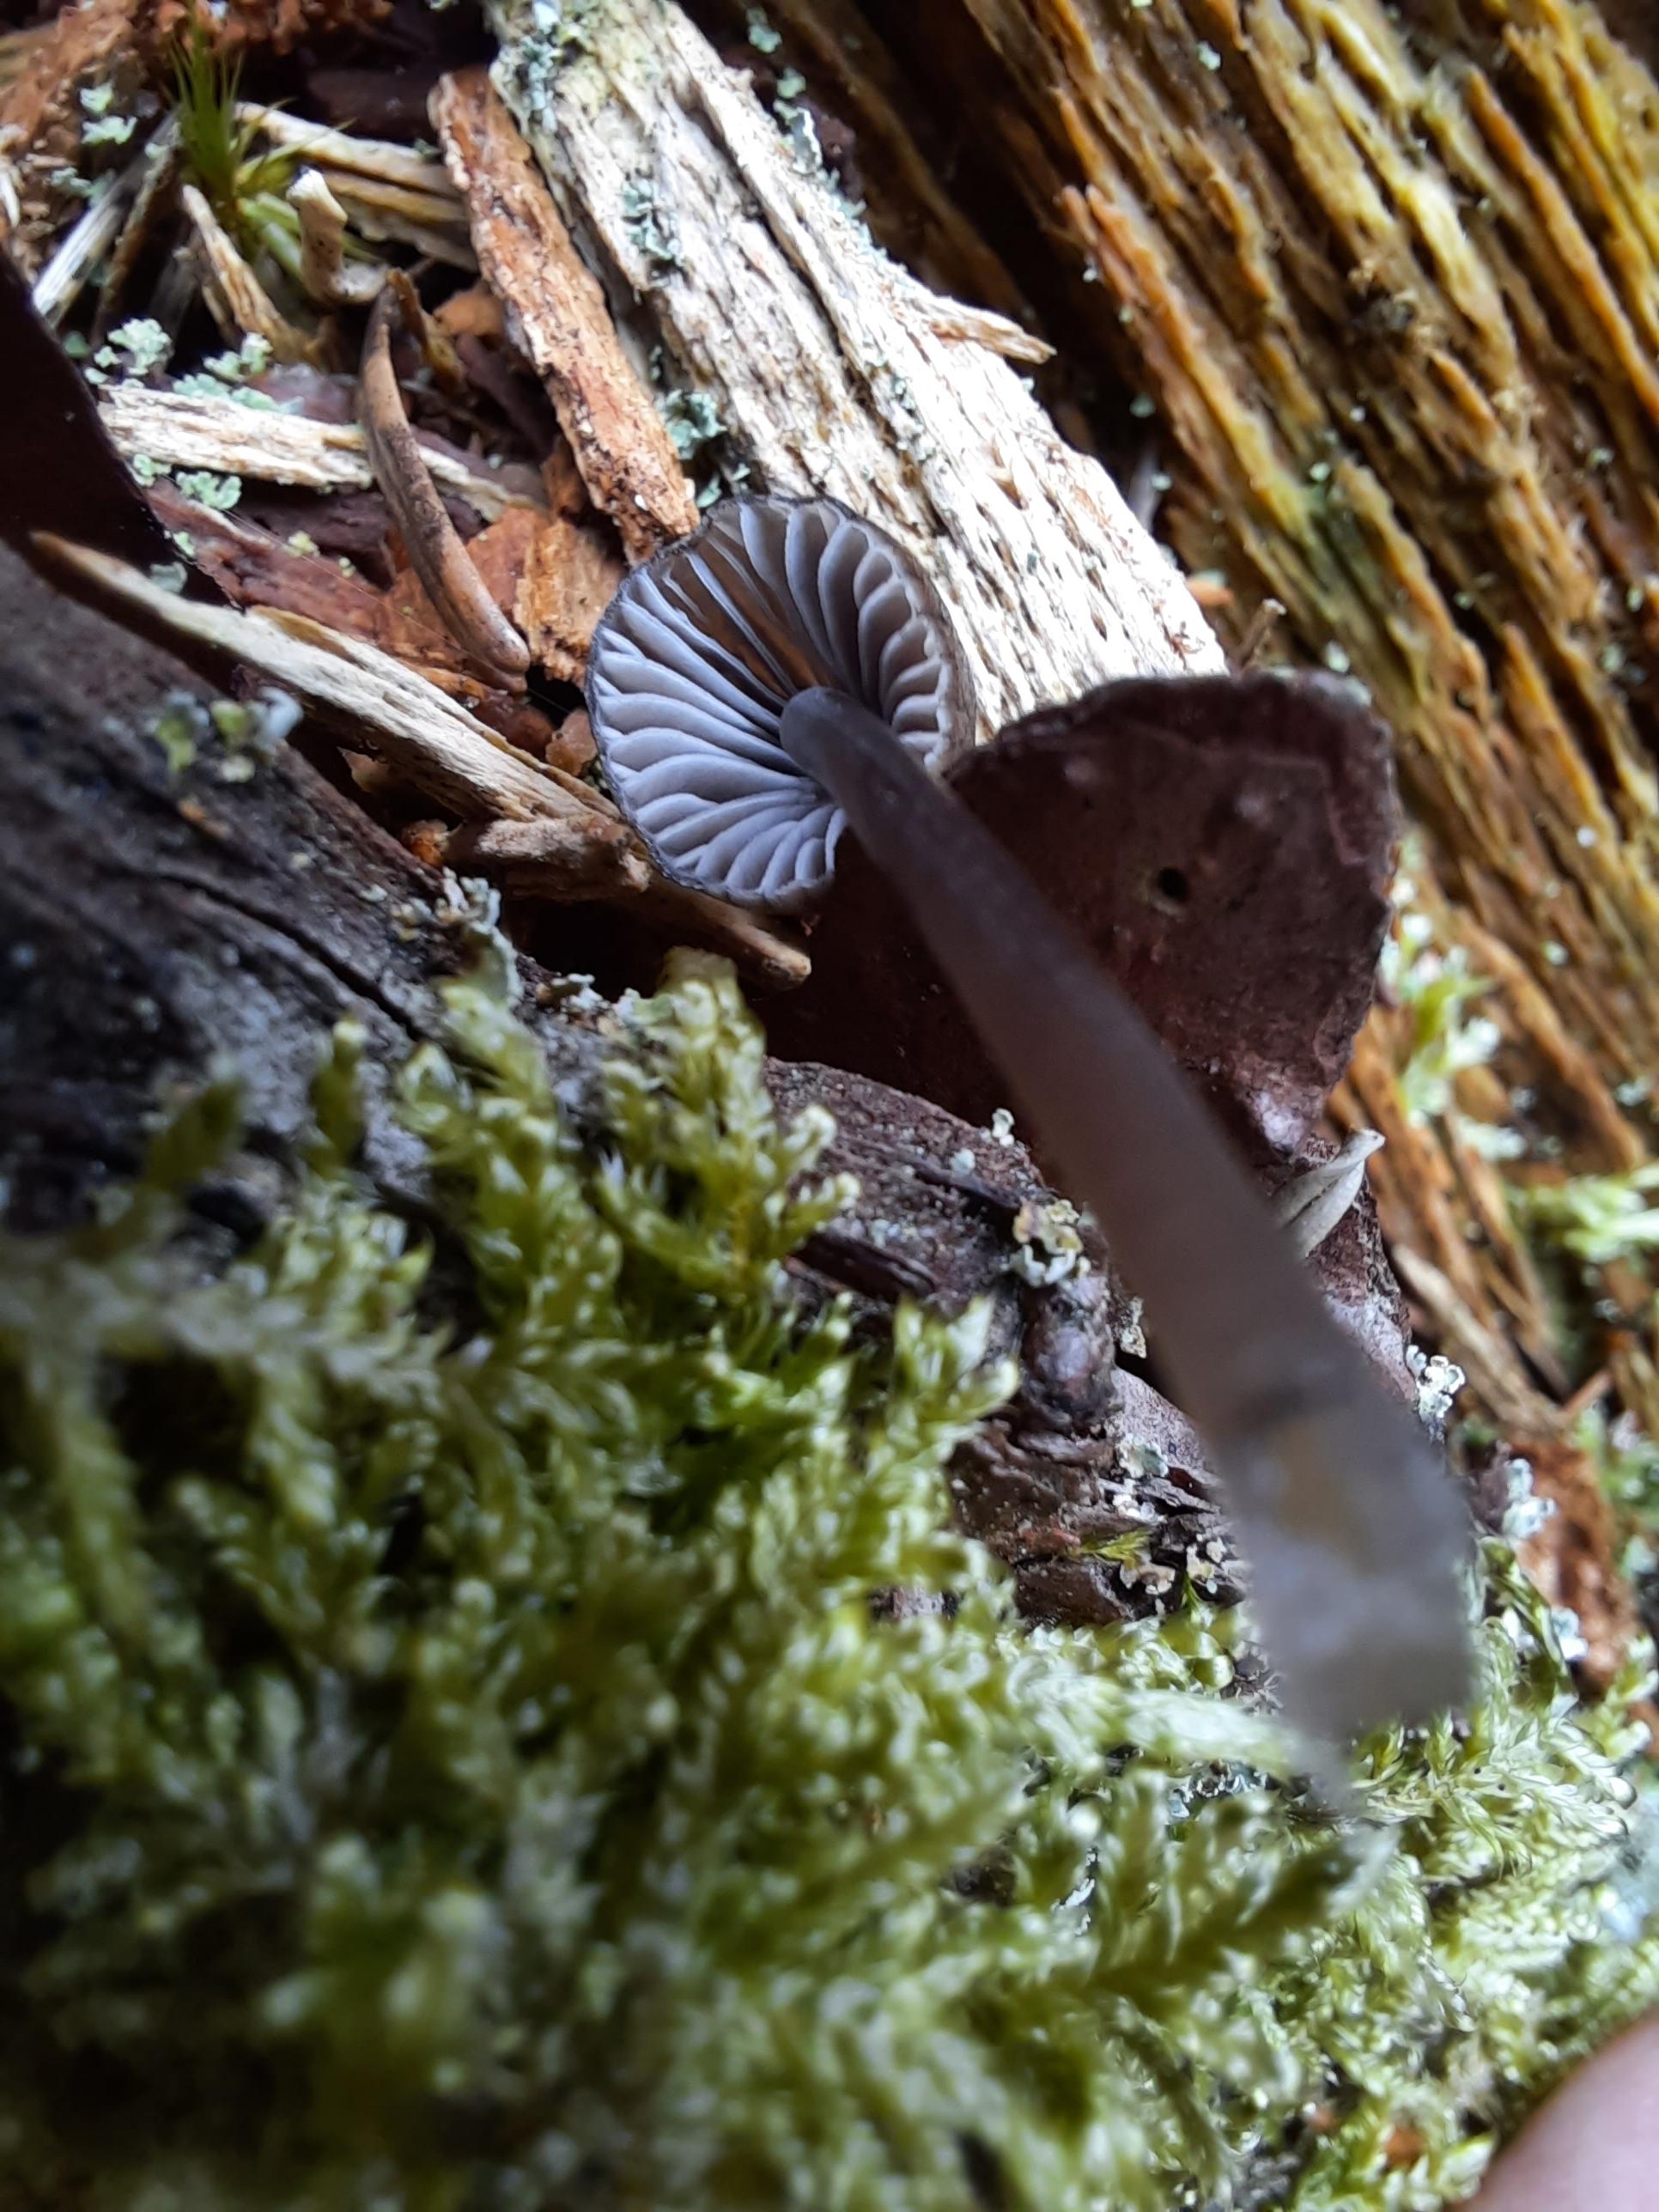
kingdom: Fungi
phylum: Basidiomycota
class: Agaricomycetes
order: Agaricales
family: Mycenaceae
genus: Mycena
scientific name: Mycena stipata
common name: stinkende huesvamp
